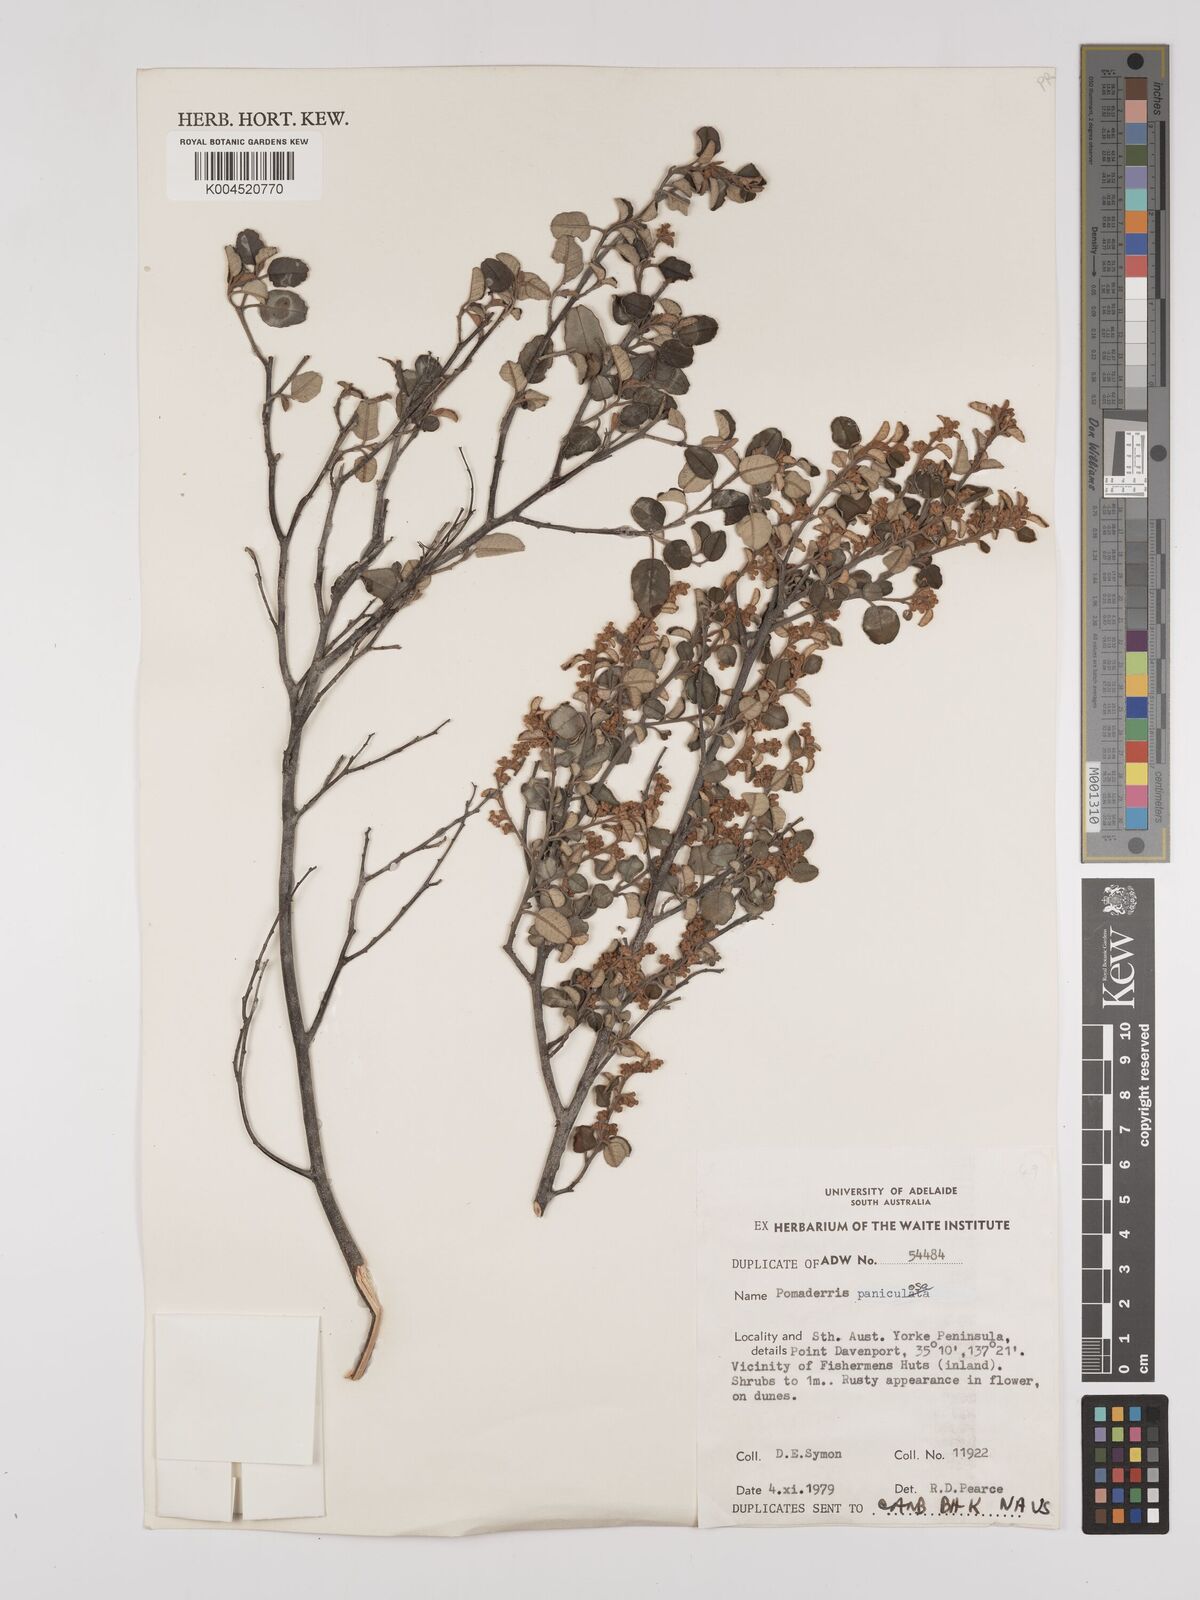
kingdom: Plantae
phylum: Tracheophyta
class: Magnoliopsida
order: Rosales
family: Rhamnaceae
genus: Pomaderris
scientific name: Pomaderris paniculosa
